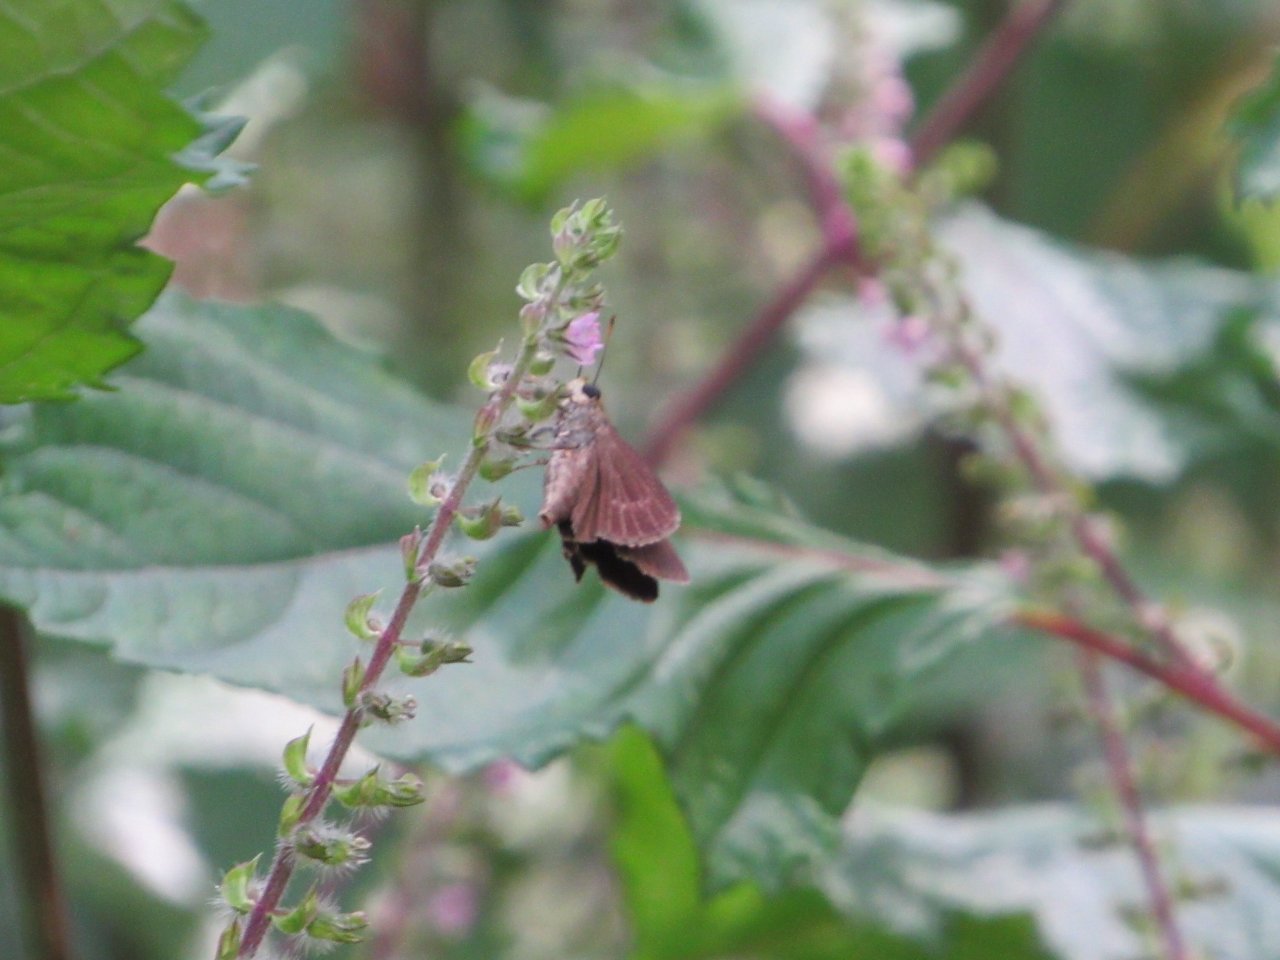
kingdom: Animalia
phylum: Arthropoda
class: Insecta
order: Lepidoptera
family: Hesperiidae
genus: Euphyes
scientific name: Euphyes vestris
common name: Dun Skipper
